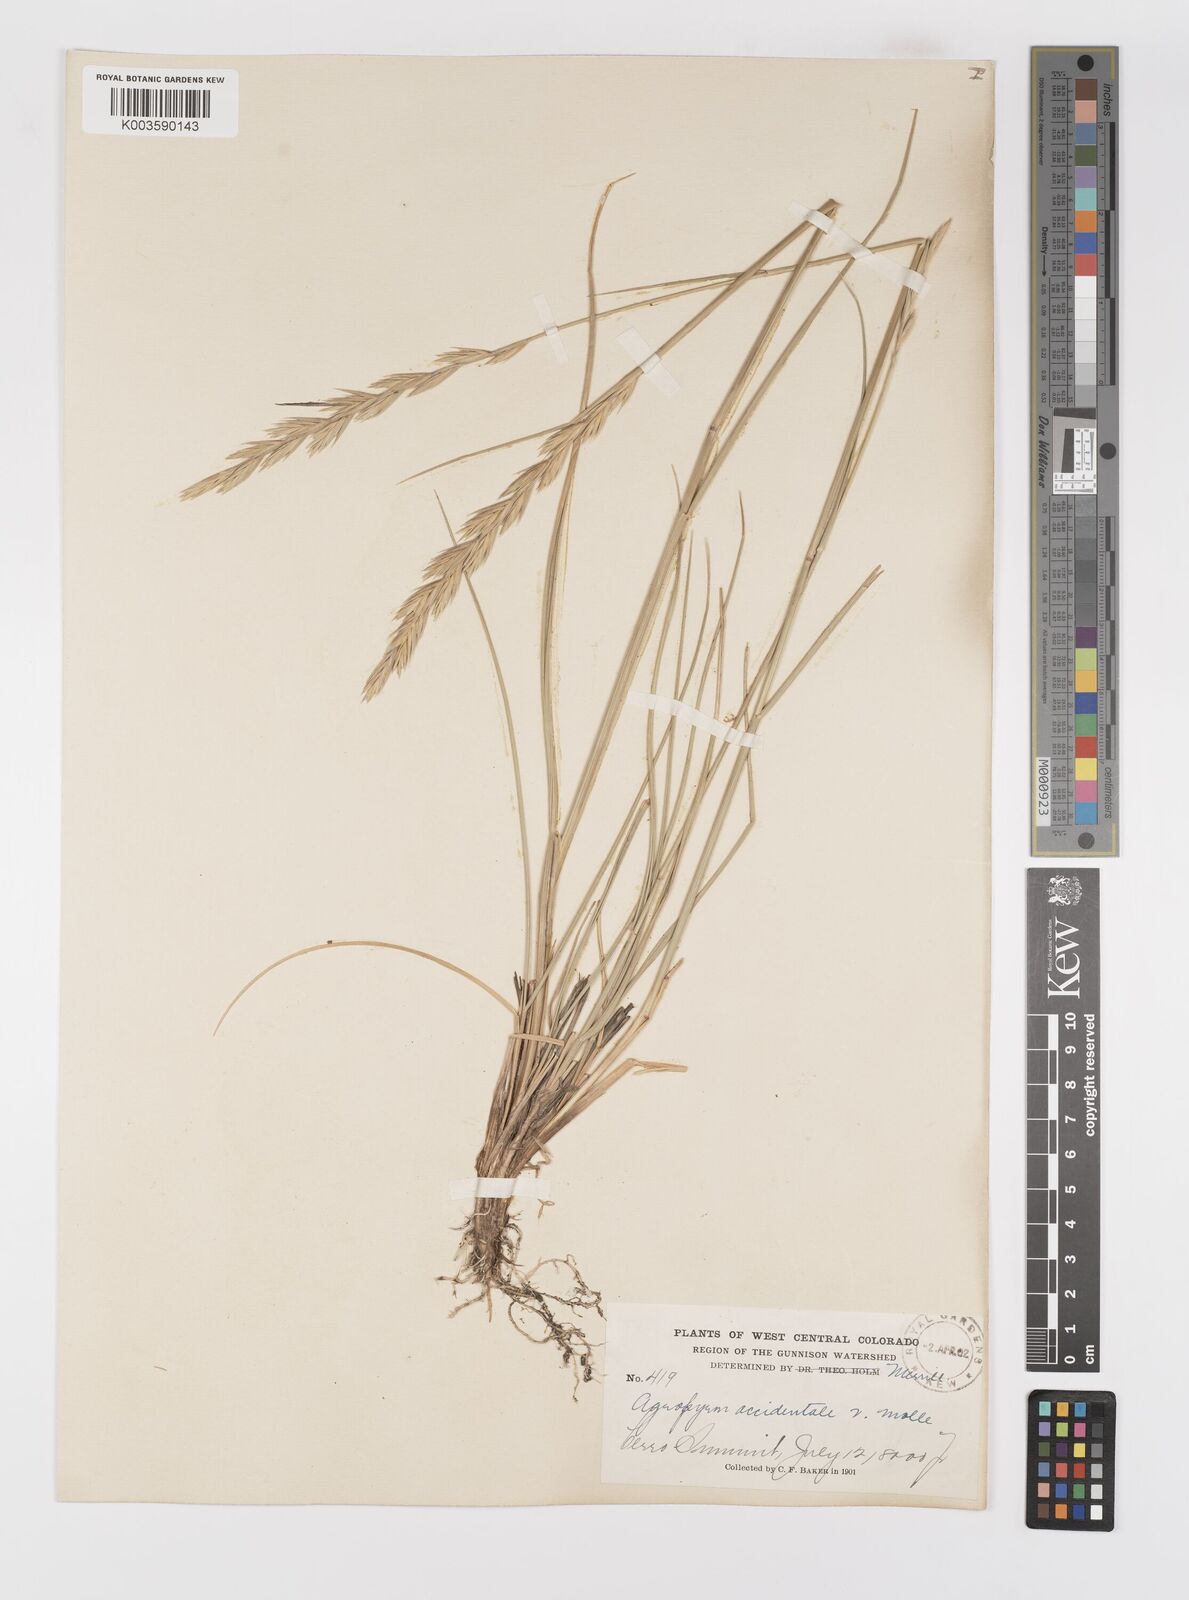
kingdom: Plantae
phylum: Tracheophyta
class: Liliopsida
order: Poales
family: Poaceae
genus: Elymus
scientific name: Elymus smithii
